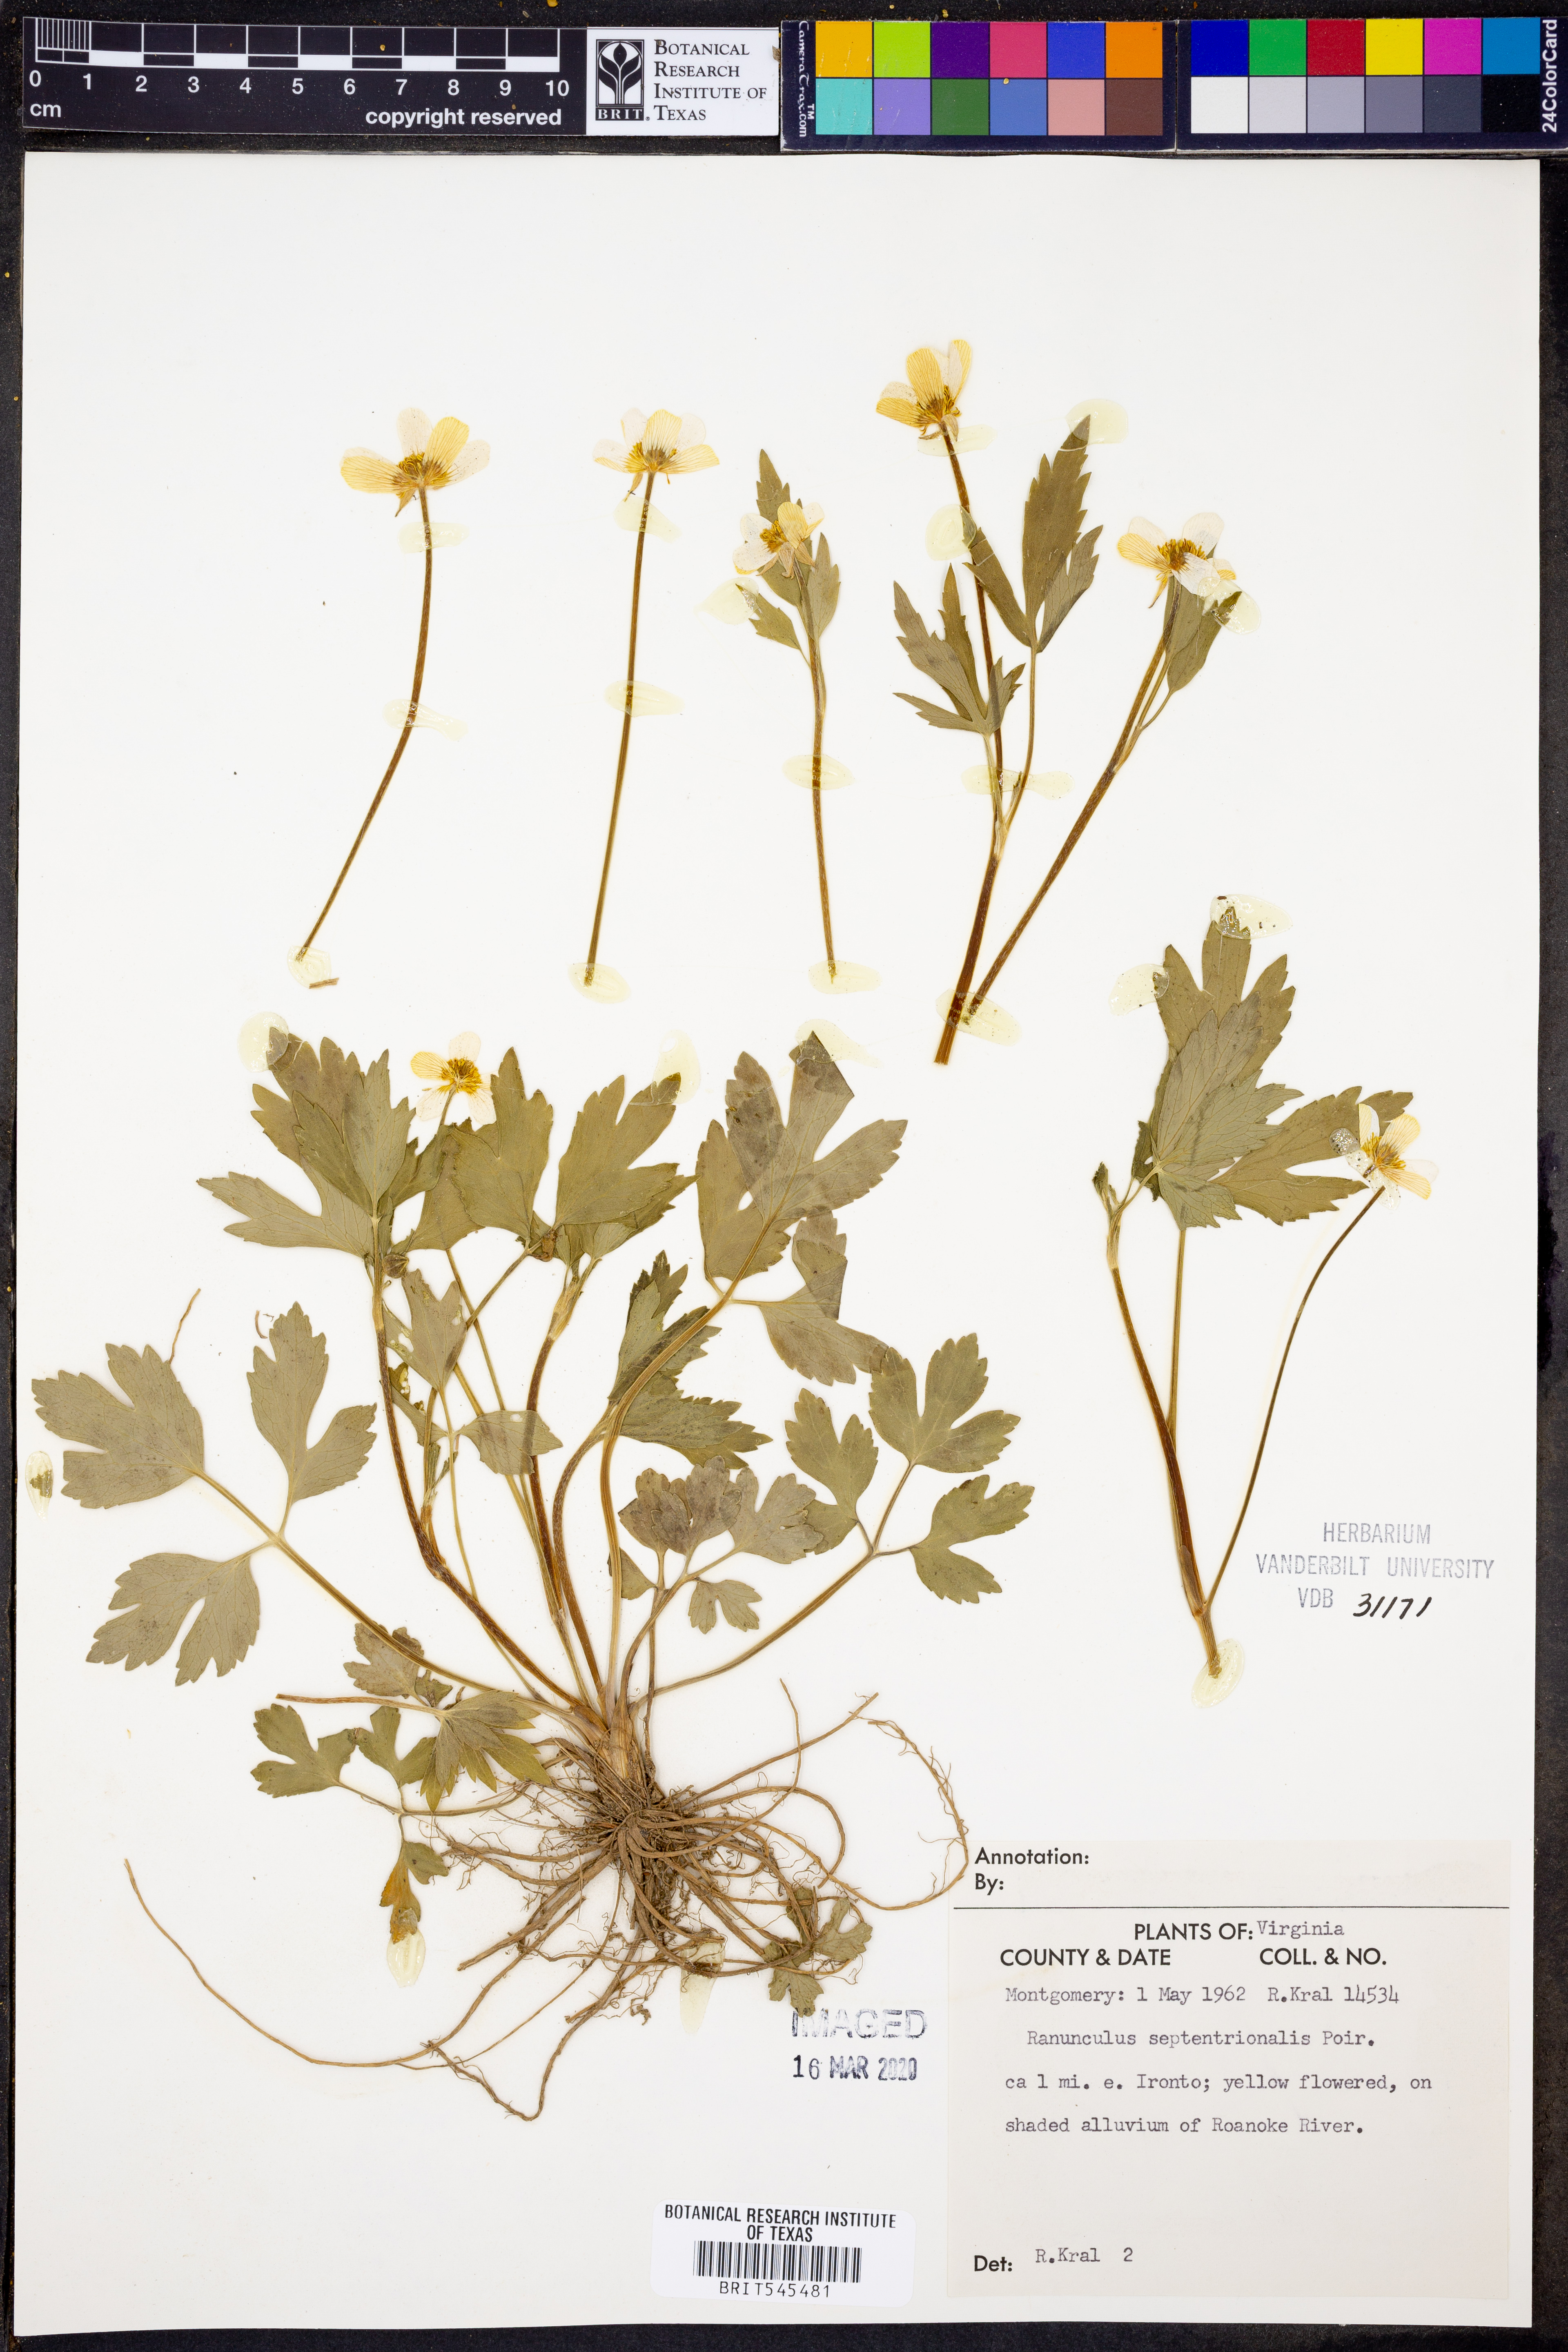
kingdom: Plantae
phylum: Tracheophyta
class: Magnoliopsida
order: Ranunculales
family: Ranunculaceae
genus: Ranunculus
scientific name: Ranunculus hispidus
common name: Bristly buttercup
